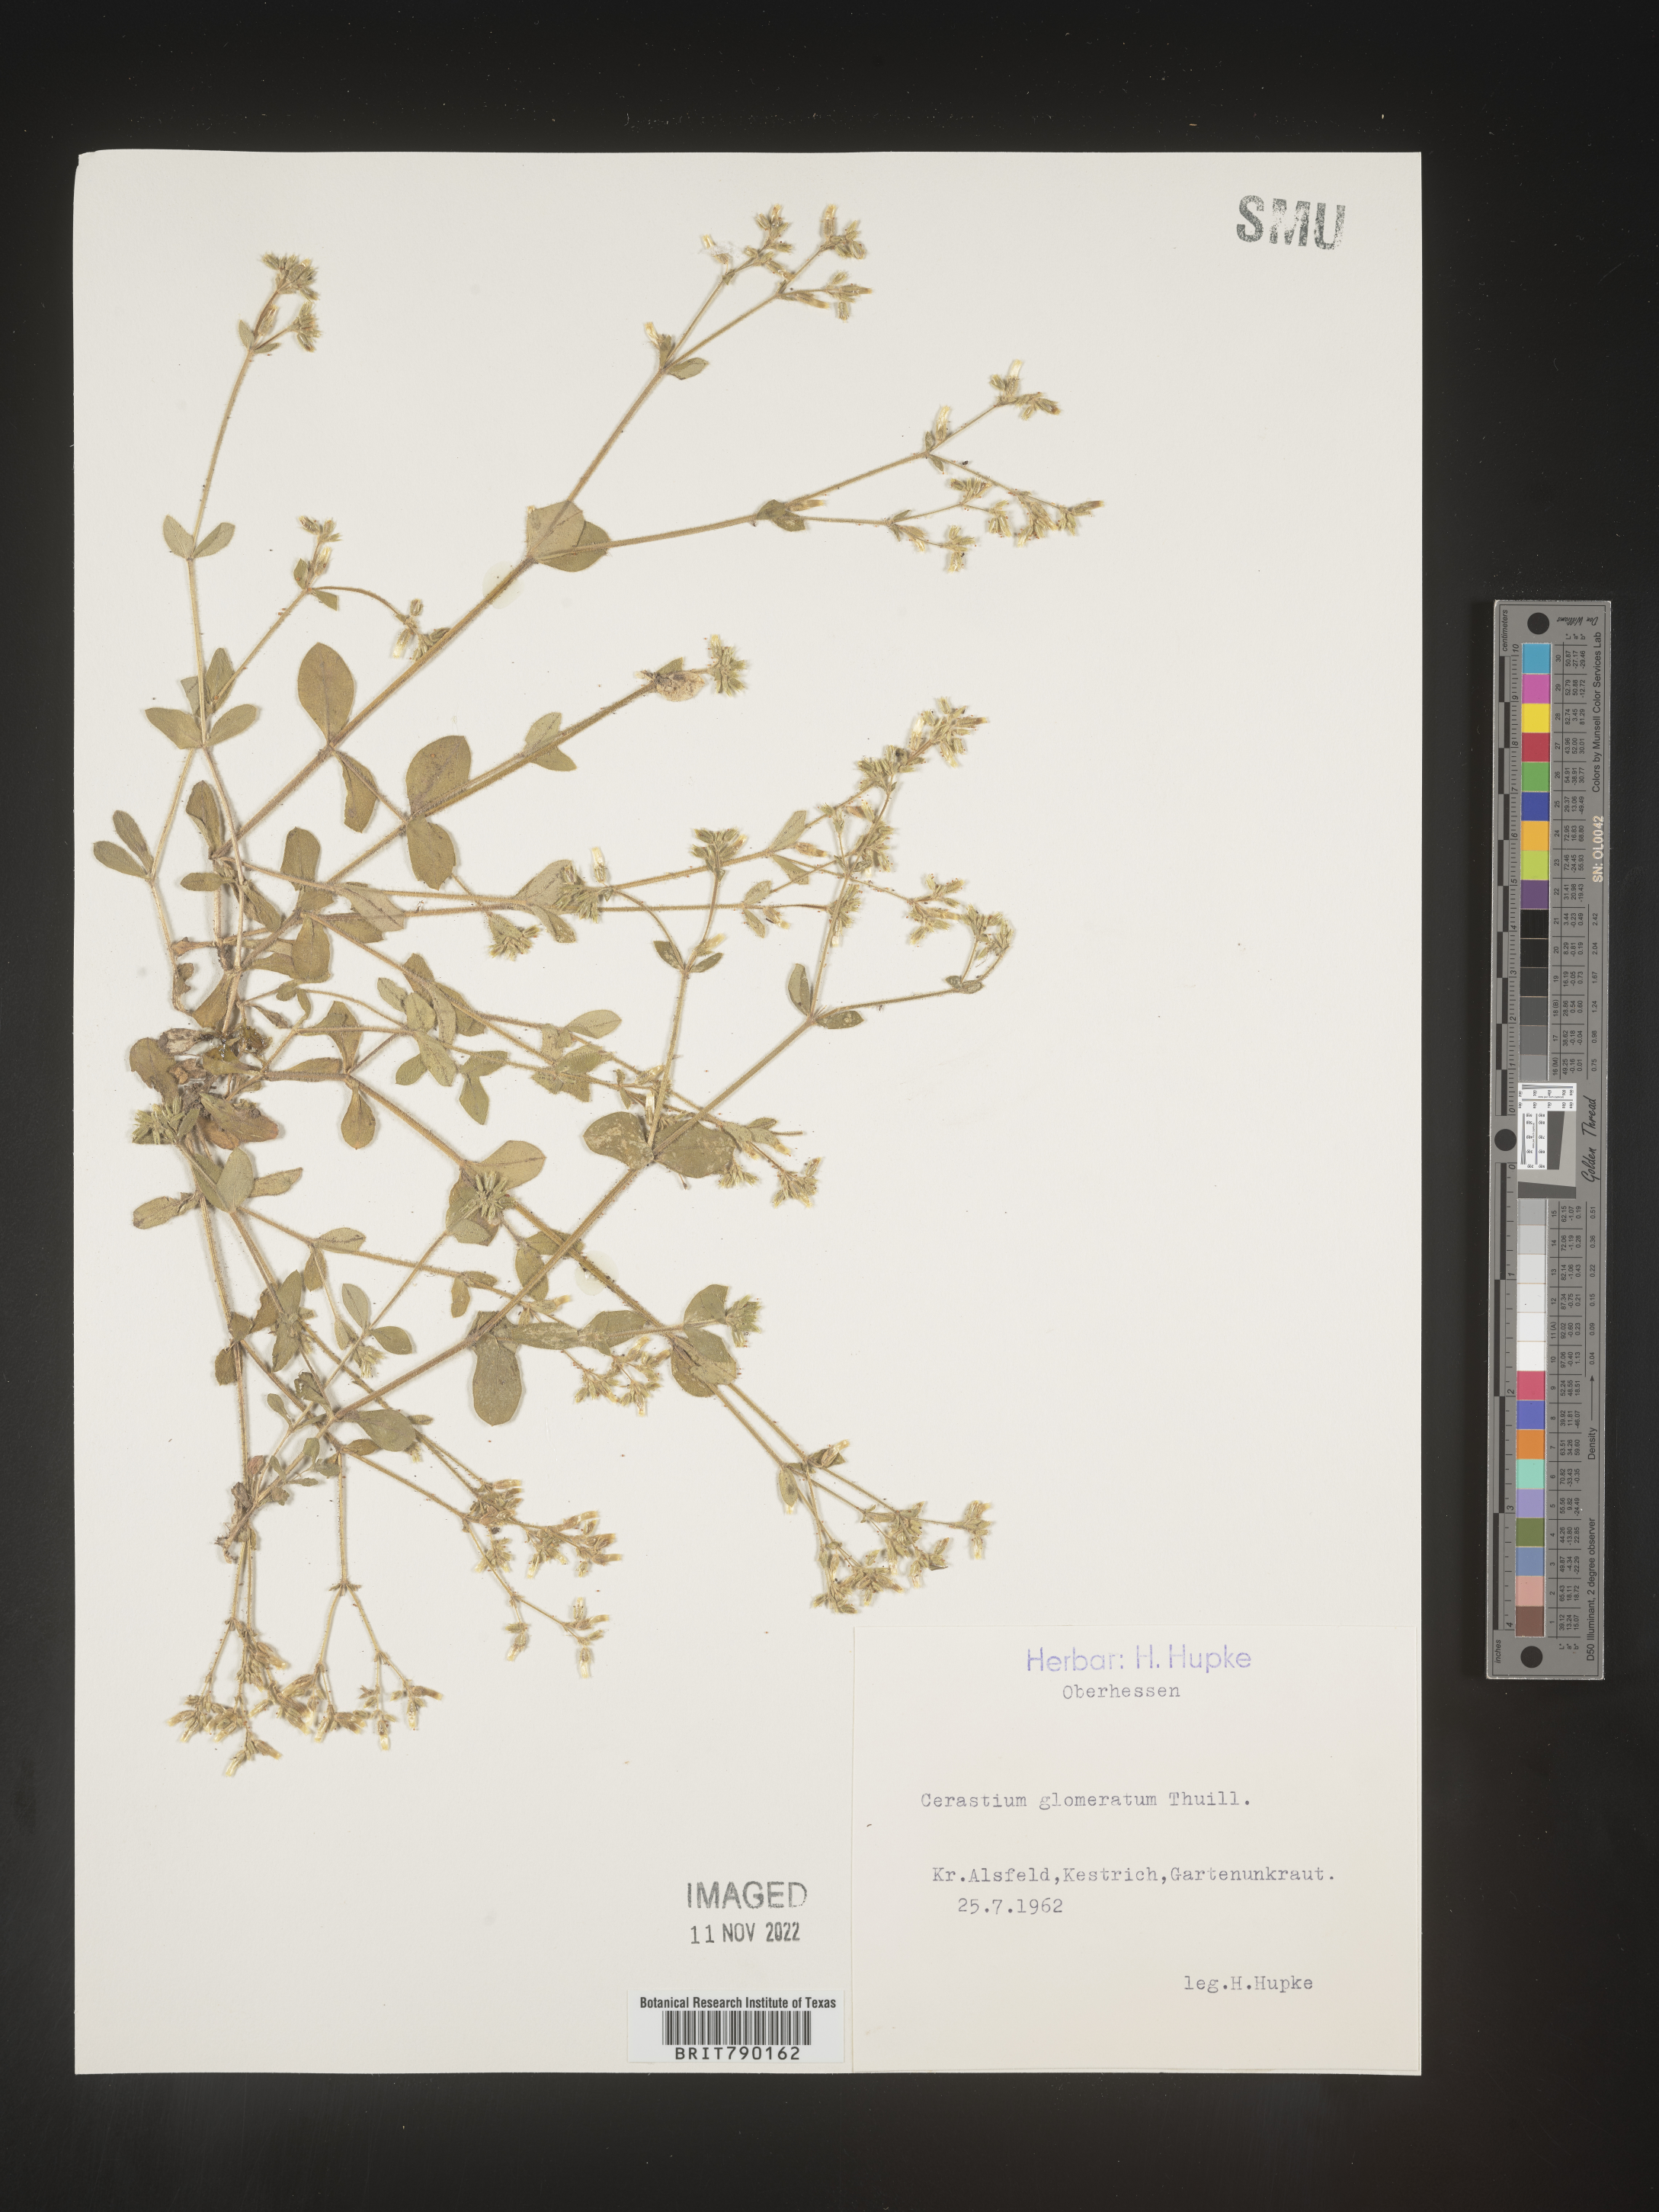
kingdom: Plantae
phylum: Tracheophyta
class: Magnoliopsida
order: Caryophyllales
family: Caryophyllaceae
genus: Cerastium
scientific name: Cerastium
